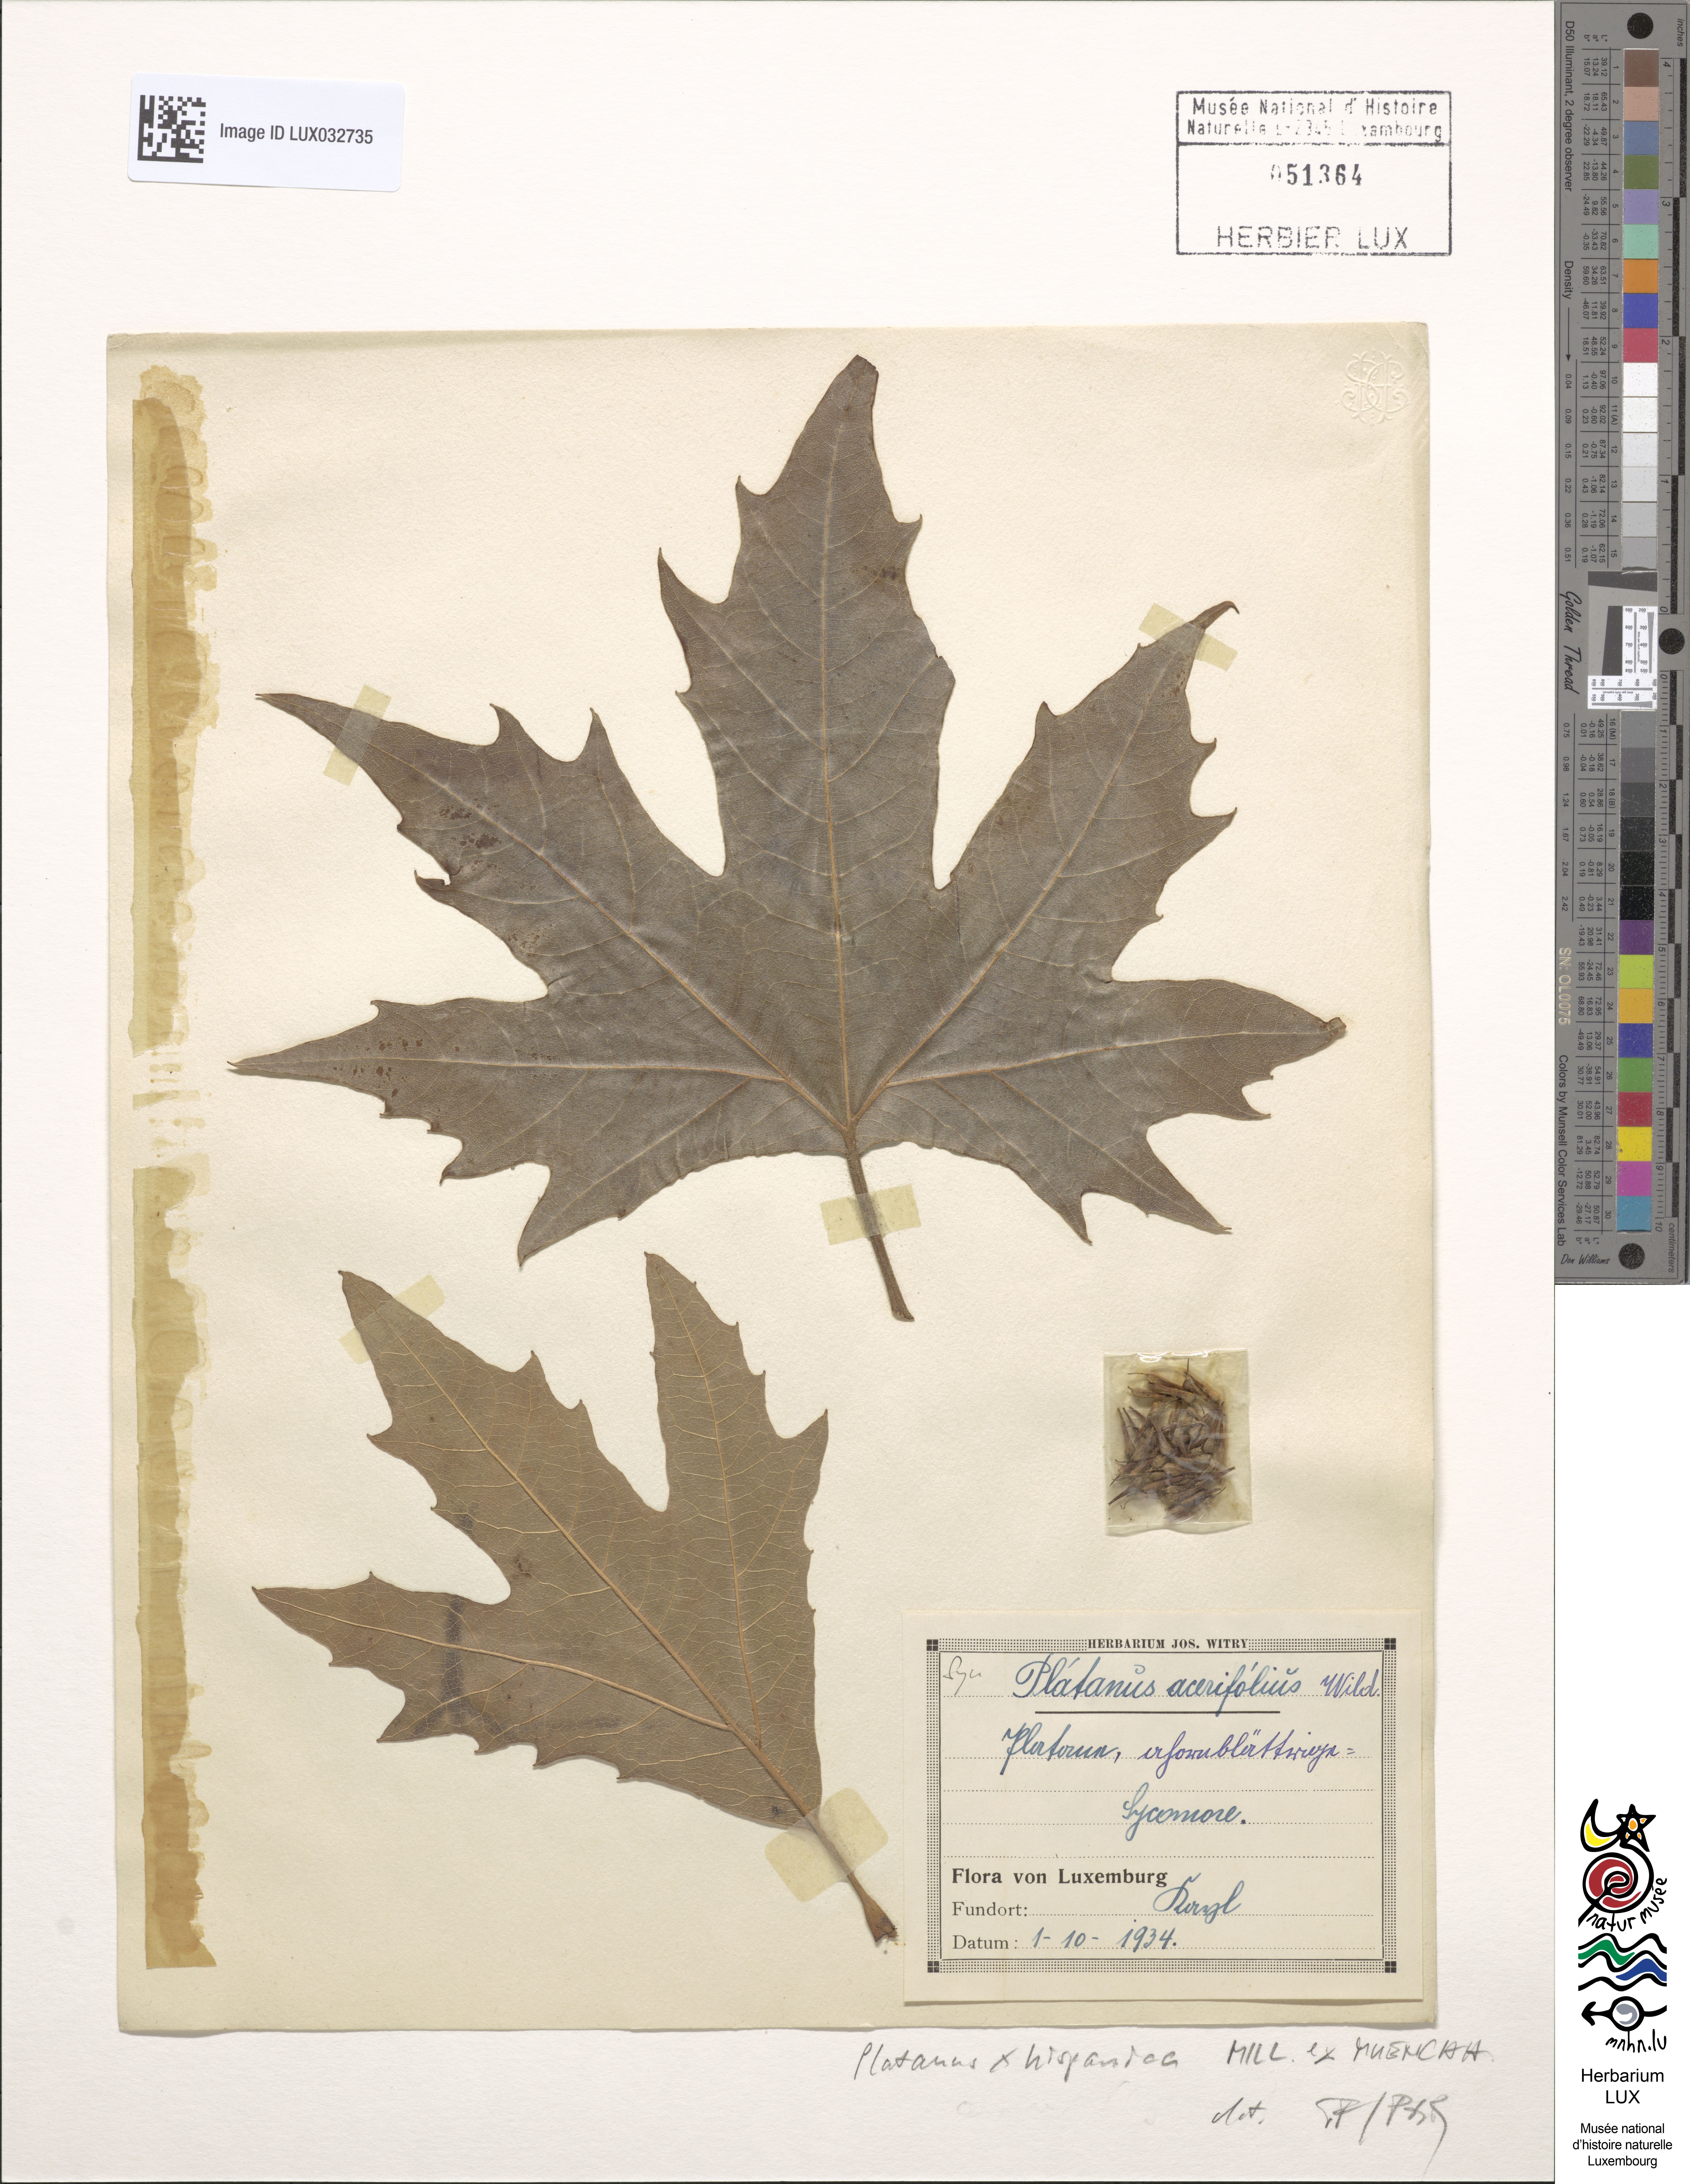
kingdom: Plantae
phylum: Tracheophyta
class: Magnoliopsida
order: Proteales
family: Platanaceae
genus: Platanus
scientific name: Platanus hispanica
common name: London plane
